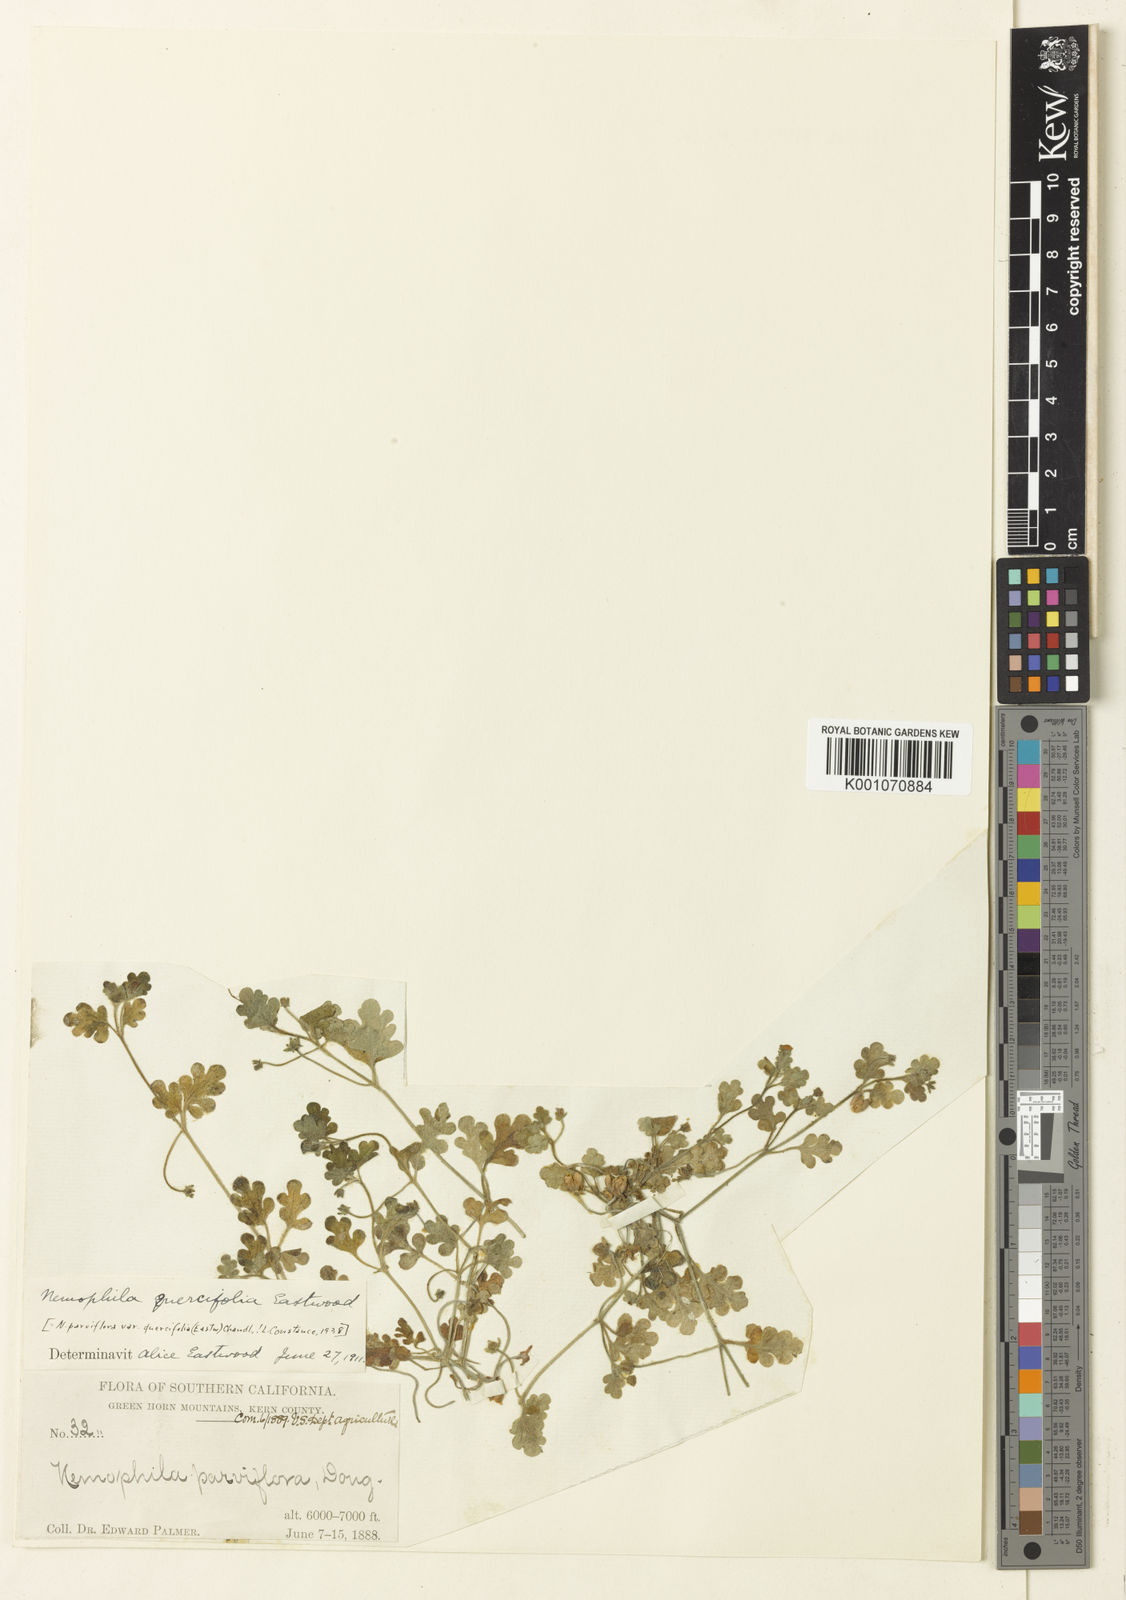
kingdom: Plantae
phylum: Tracheophyta
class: Magnoliopsida
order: Boraginales
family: Hydrophyllaceae
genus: Nemophila
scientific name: Nemophila parviflora
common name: Small-flowered baby-blue-eyes
